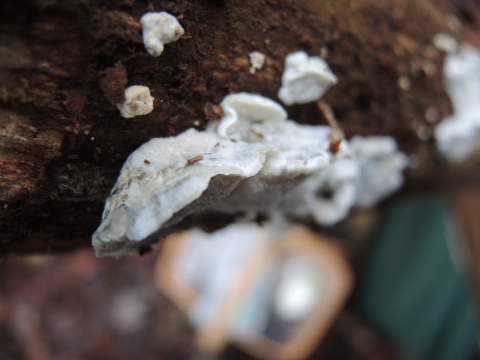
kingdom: Fungi
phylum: Basidiomycota
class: Agaricomycetes
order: Polyporales
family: Polyporaceae
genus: Cyanosporus
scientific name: Cyanosporus alni
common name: blegblå kødporesvamp
